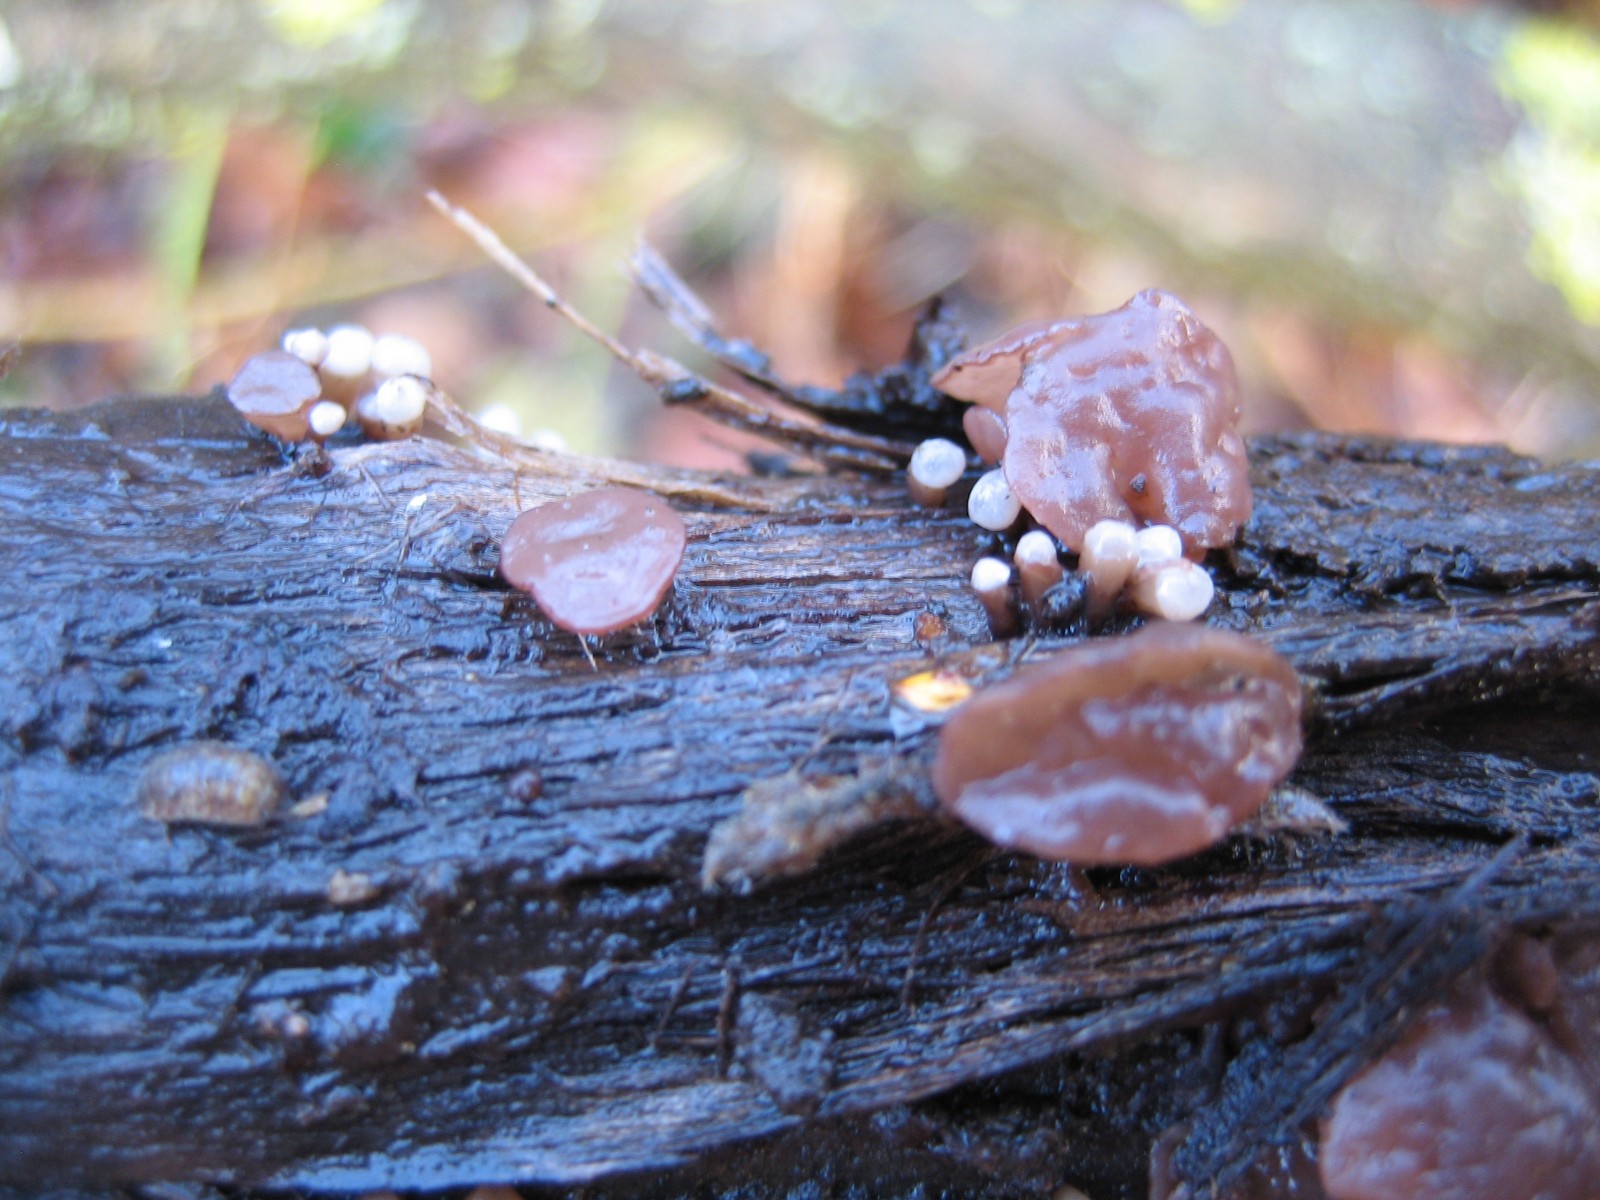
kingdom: Fungi
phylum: Ascomycota
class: Leotiomycetes
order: Helotiales
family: Gelatinodiscaceae
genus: Ascocoryne
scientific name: Ascocoryne albida
